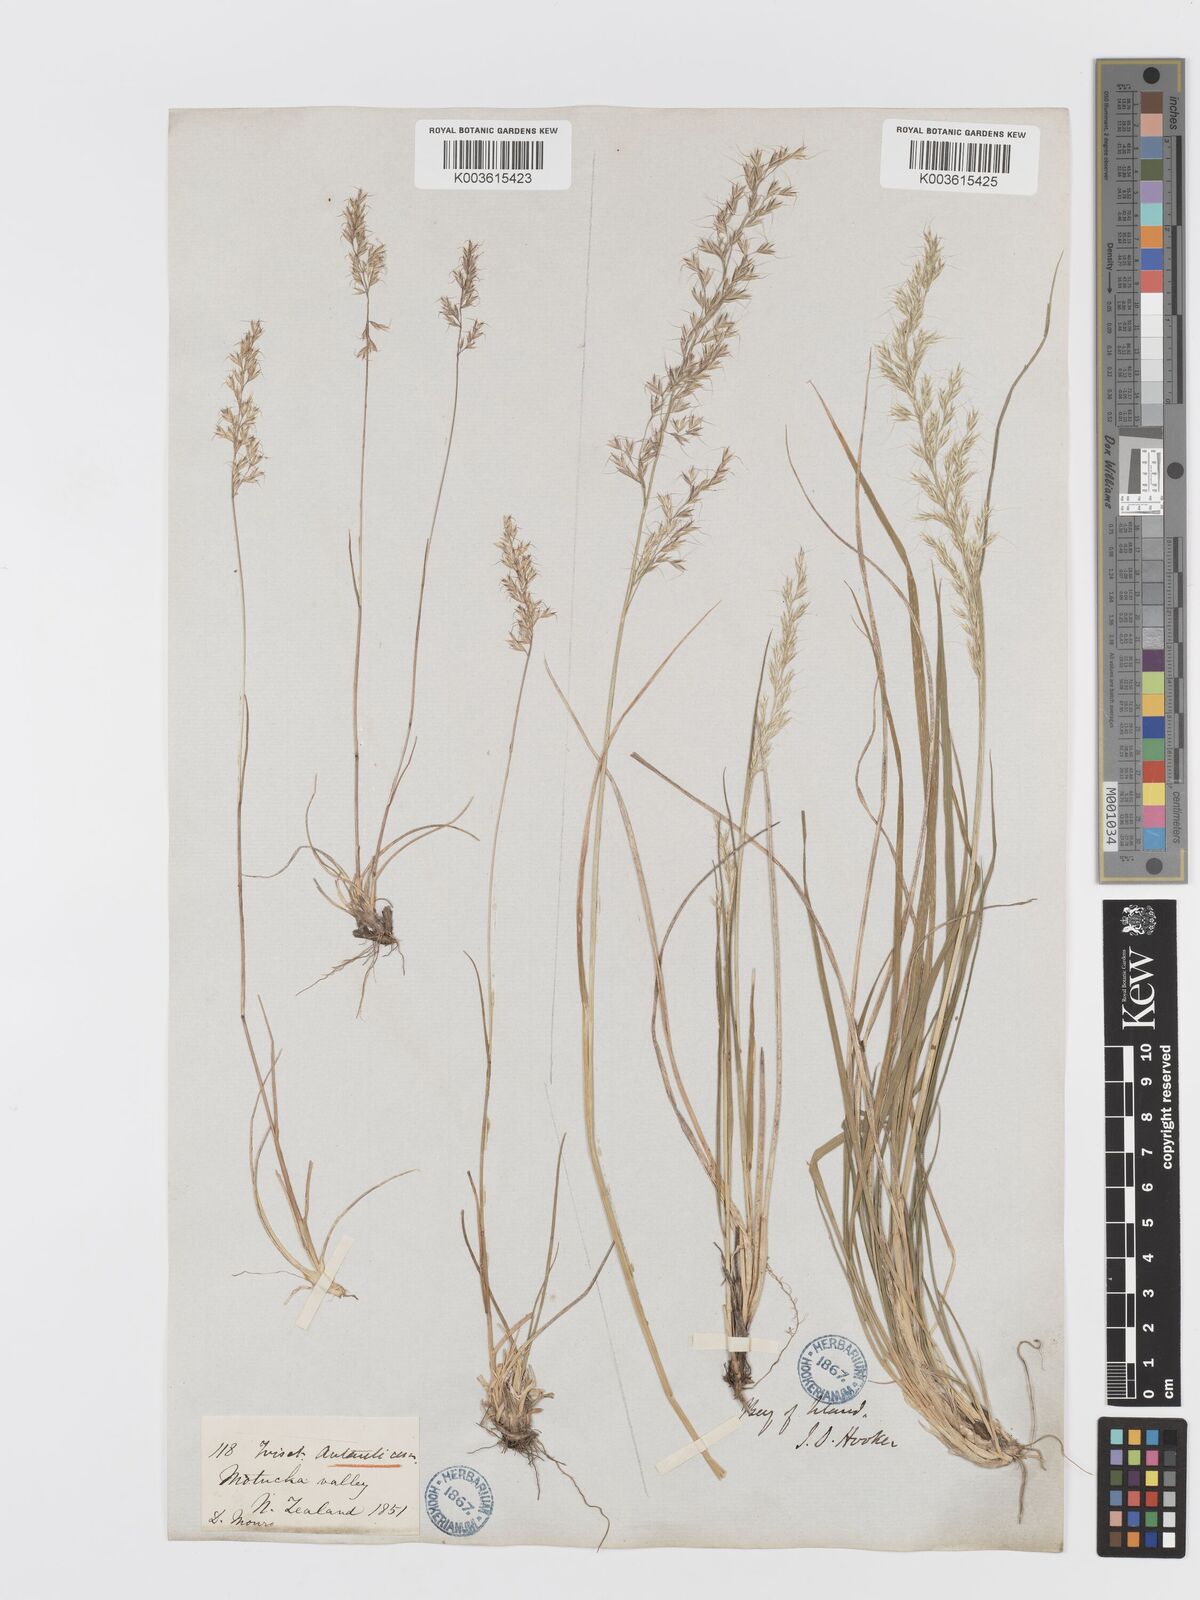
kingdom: Plantae
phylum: Tracheophyta
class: Liliopsida
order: Poales
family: Poaceae
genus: Koeleria
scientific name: Koeleria antarctica
